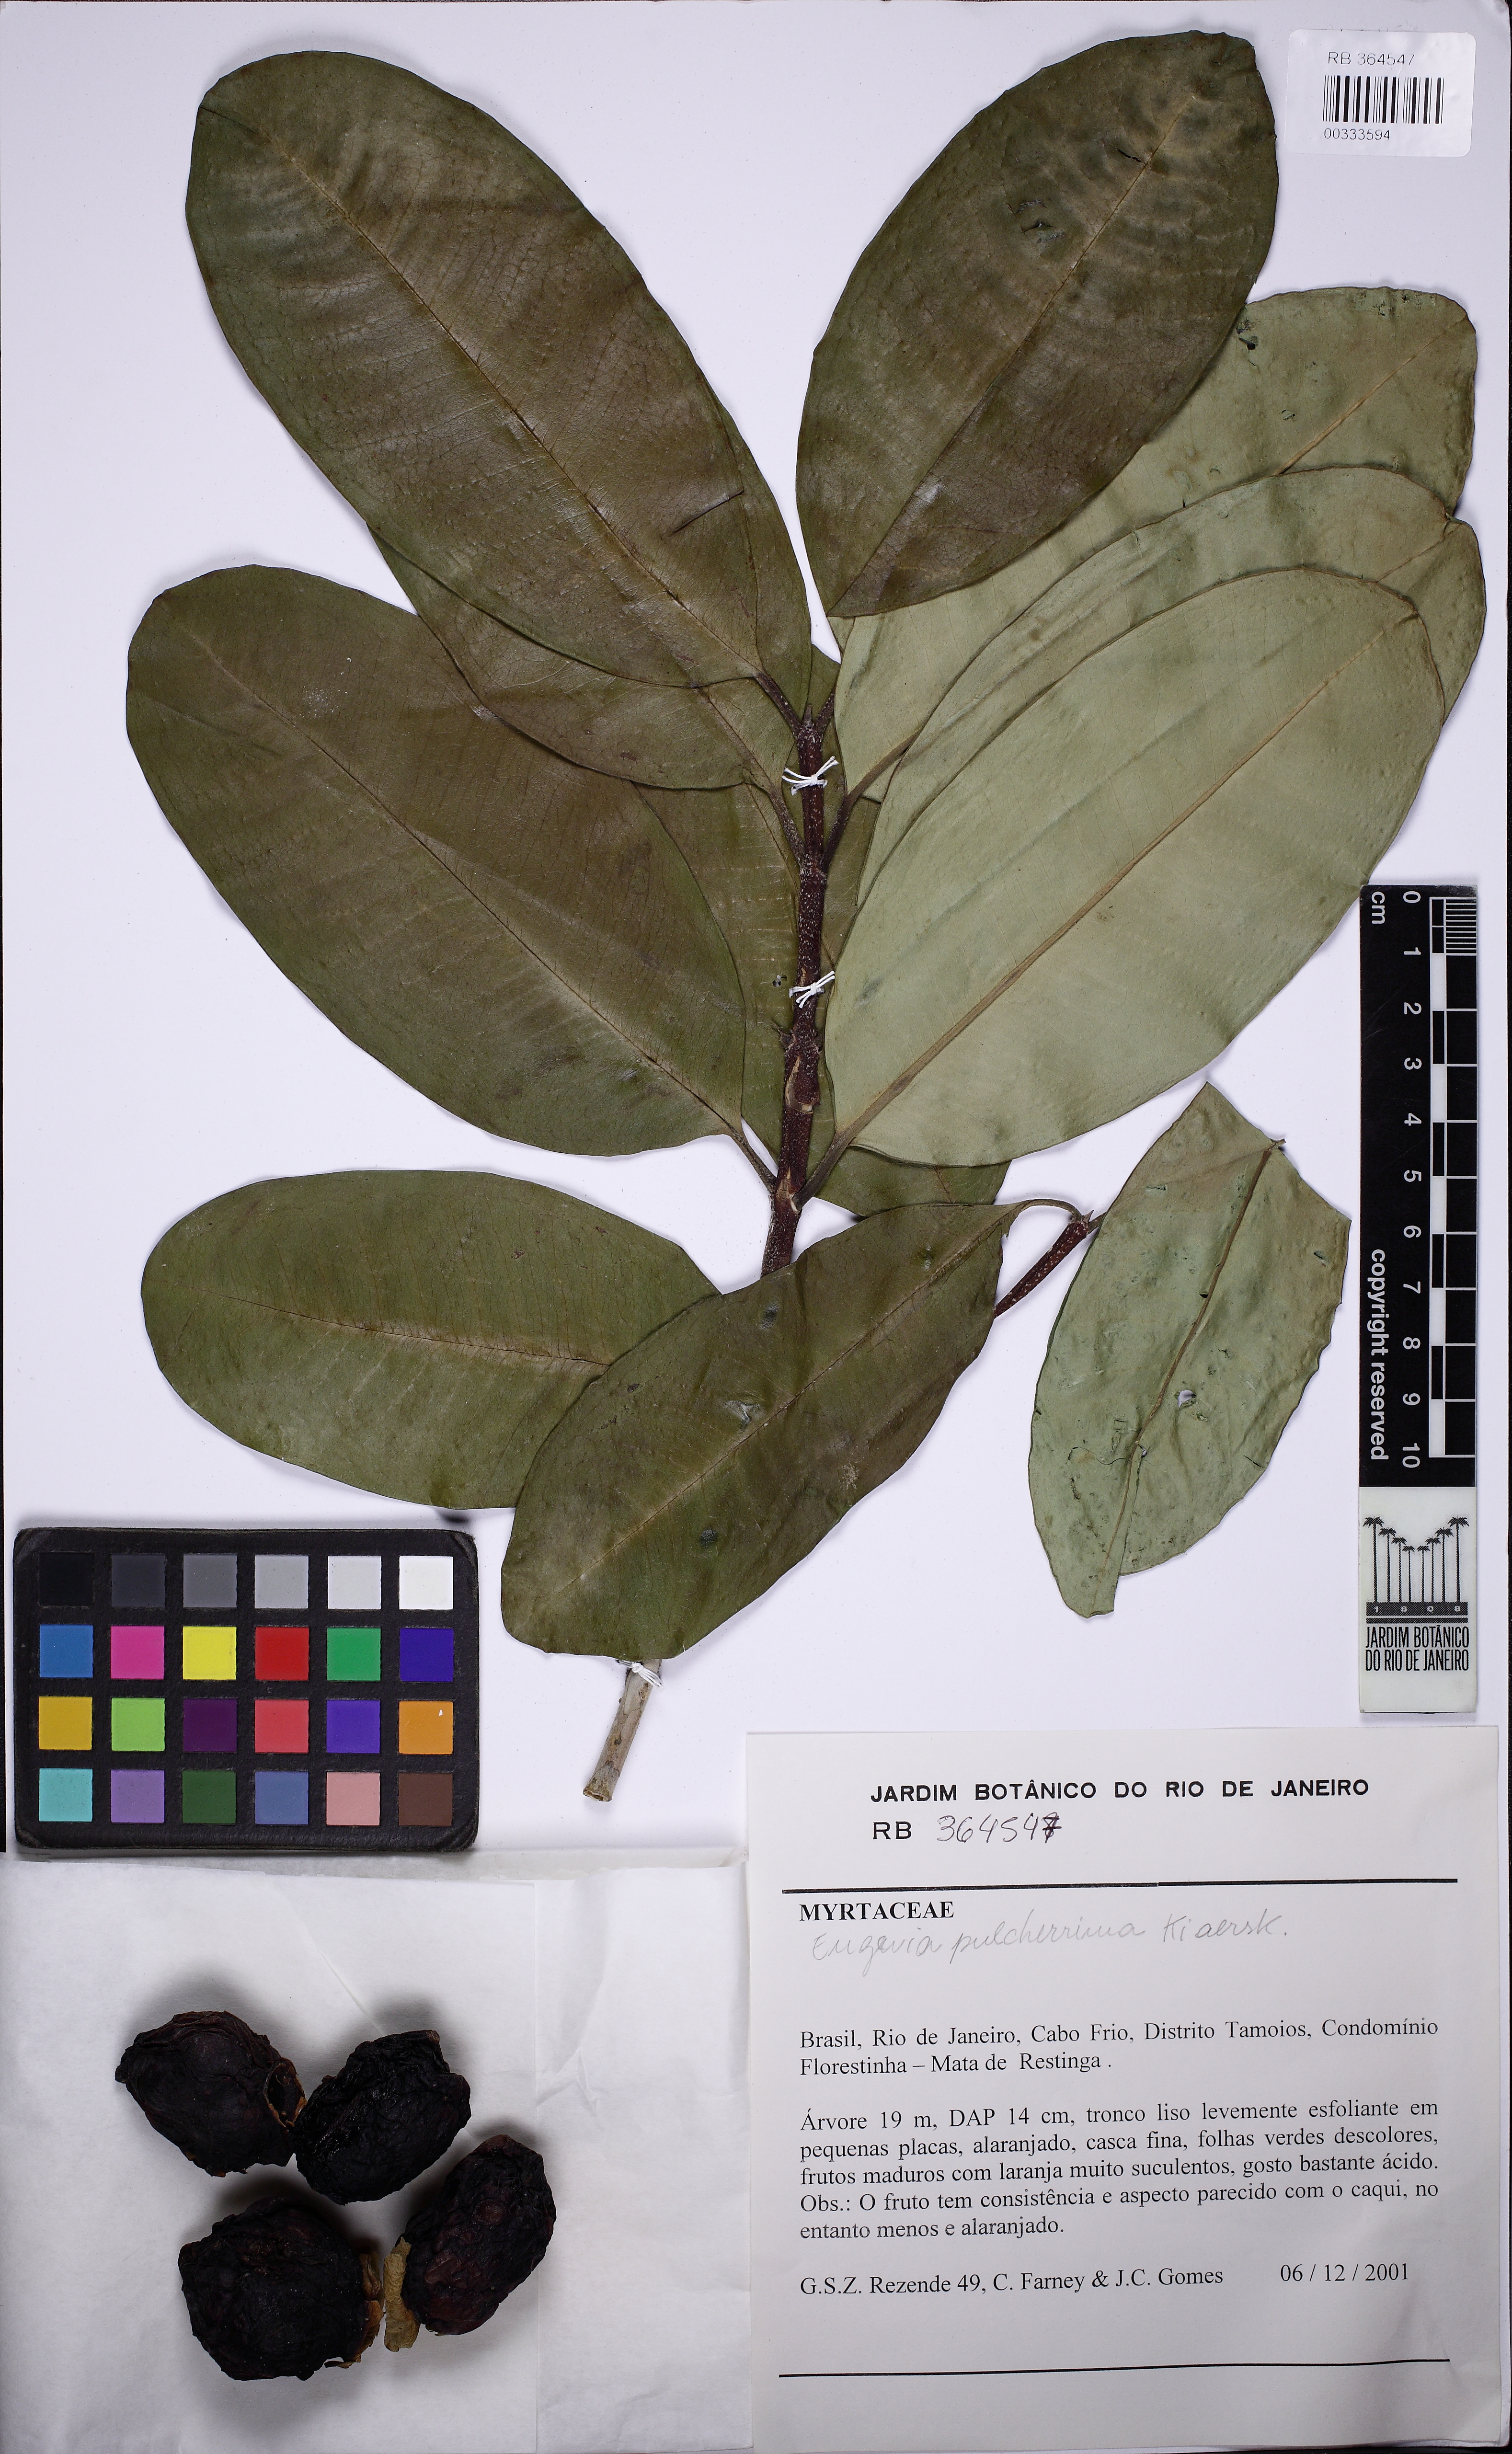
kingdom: Plantae
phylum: Tracheophyta
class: Magnoliopsida
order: Myrtales
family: Myrtaceae
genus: Eugenia
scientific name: Eugenia pulcherrima
